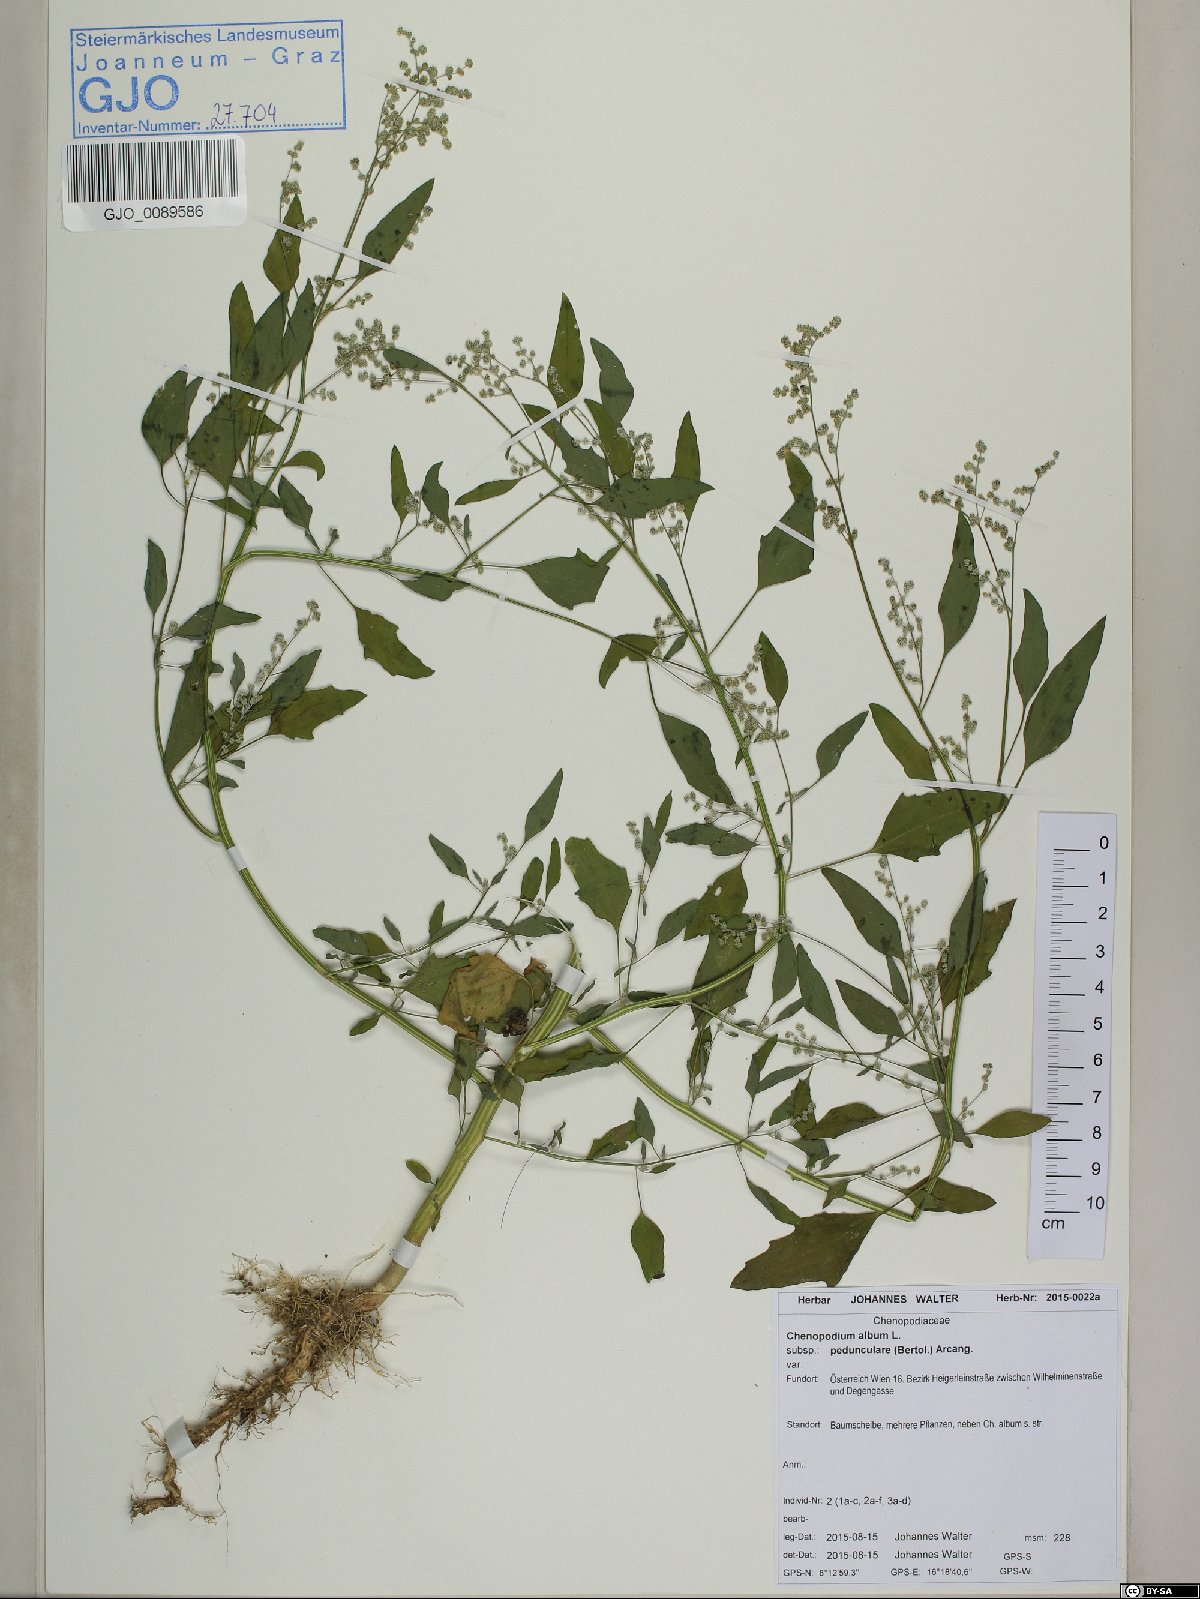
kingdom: Plantae
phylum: Tracheophyta
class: Magnoliopsida
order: Caryophyllales
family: Amaranthaceae
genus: Chenopodium
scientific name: Chenopodium album
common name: Fat-hen
